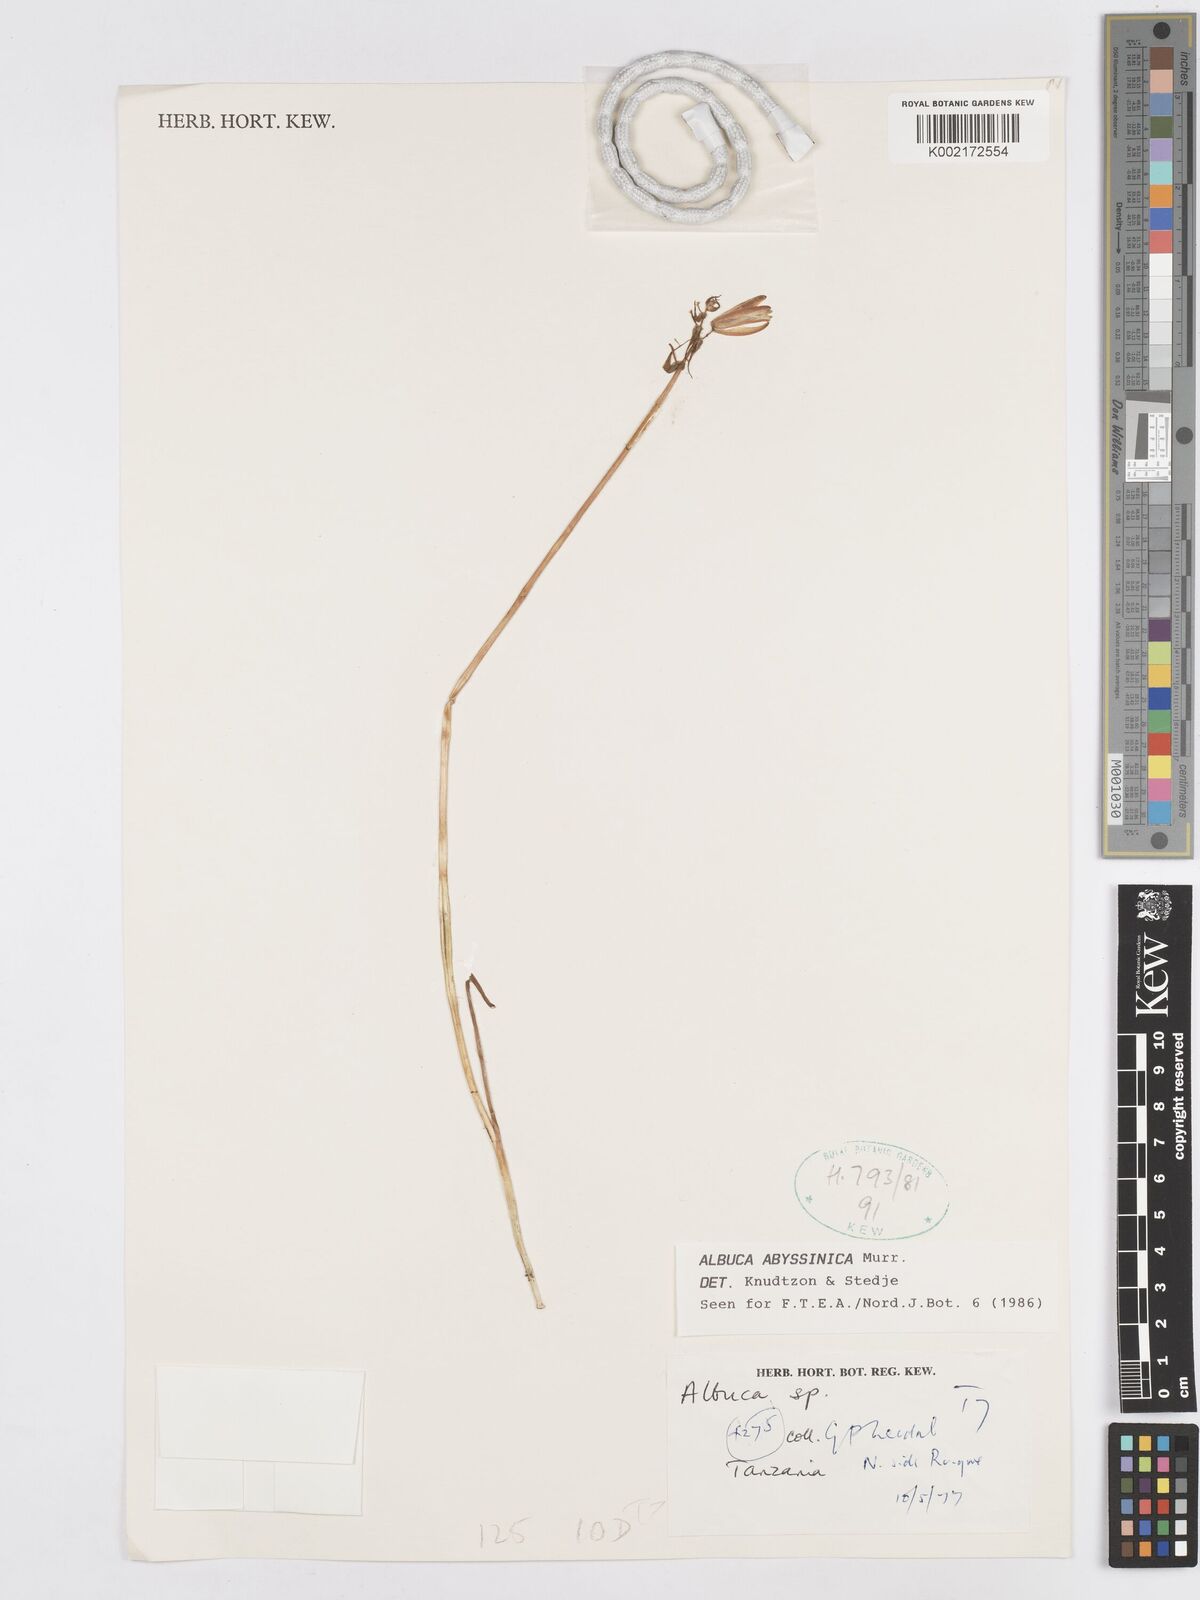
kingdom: Plantae
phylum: Tracheophyta
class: Liliopsida
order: Asparagales
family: Asparagaceae
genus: Albuca
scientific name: Albuca abyssinica
